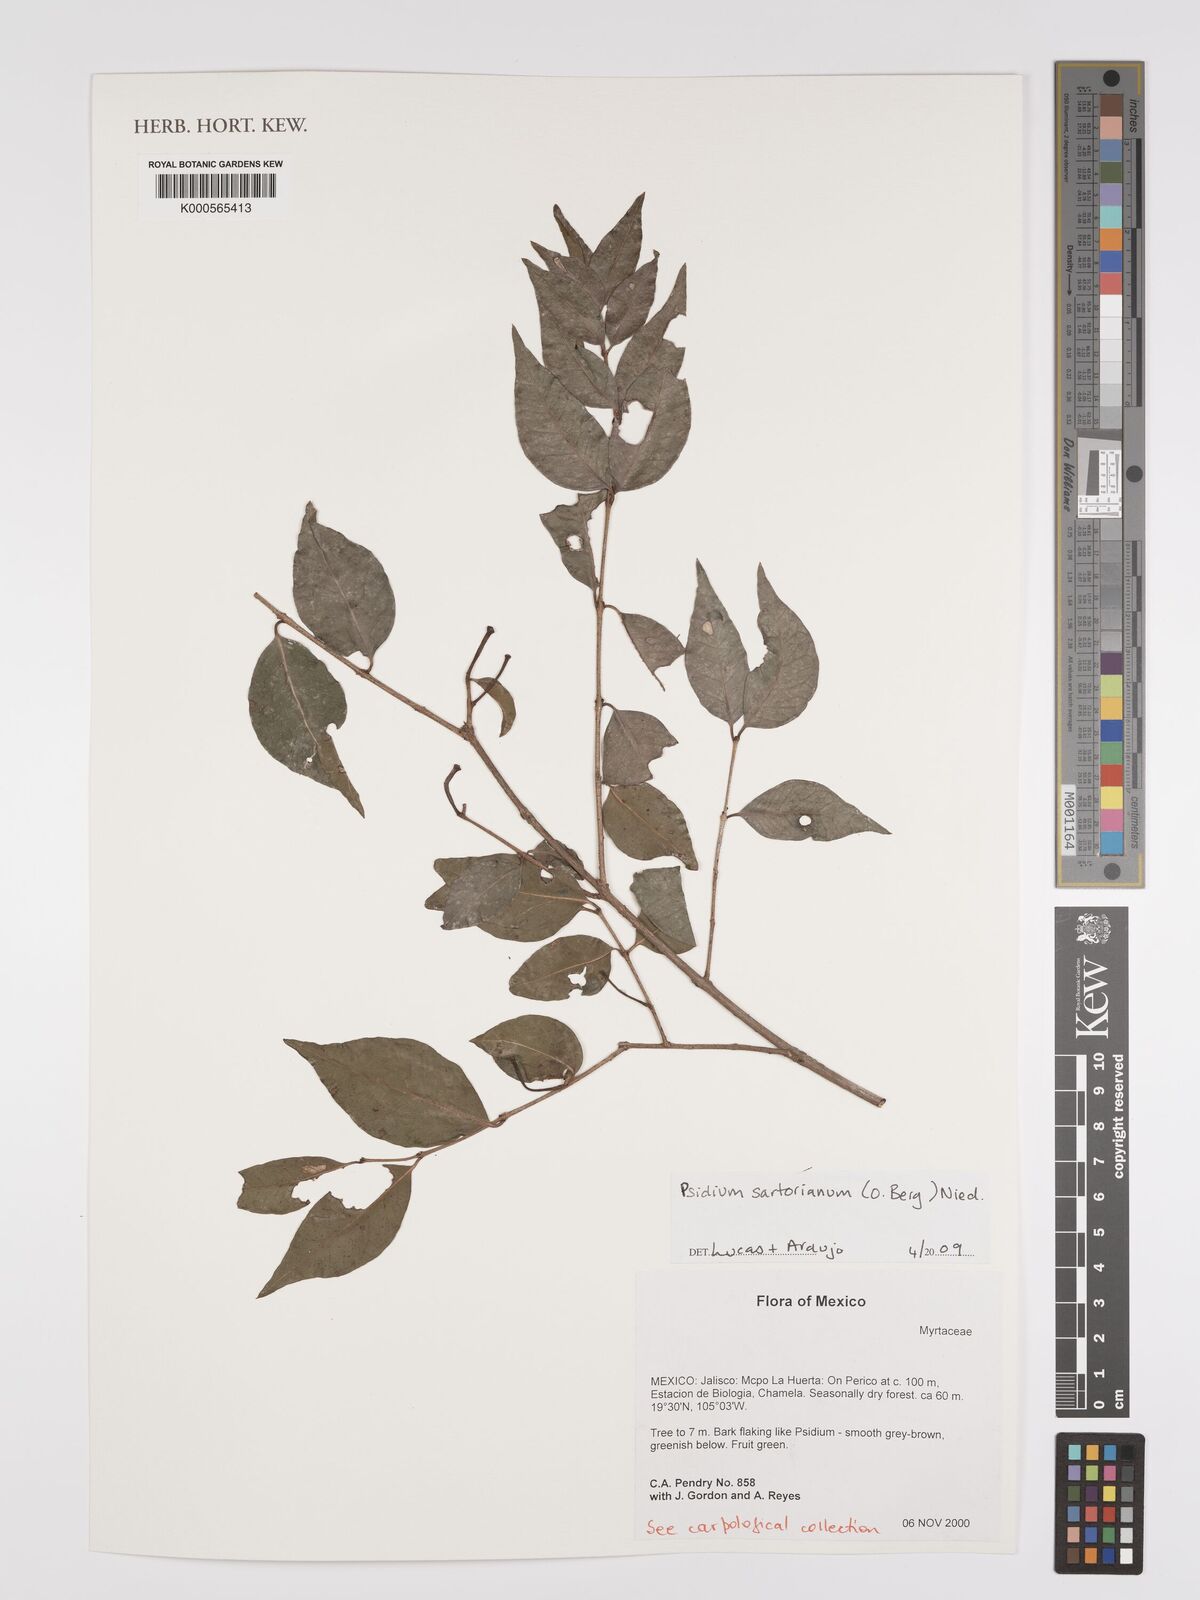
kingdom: Plantae
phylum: Tracheophyta
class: Magnoliopsida
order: Myrtales
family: Myrtaceae
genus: Psidium
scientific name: Psidium sartorianum
